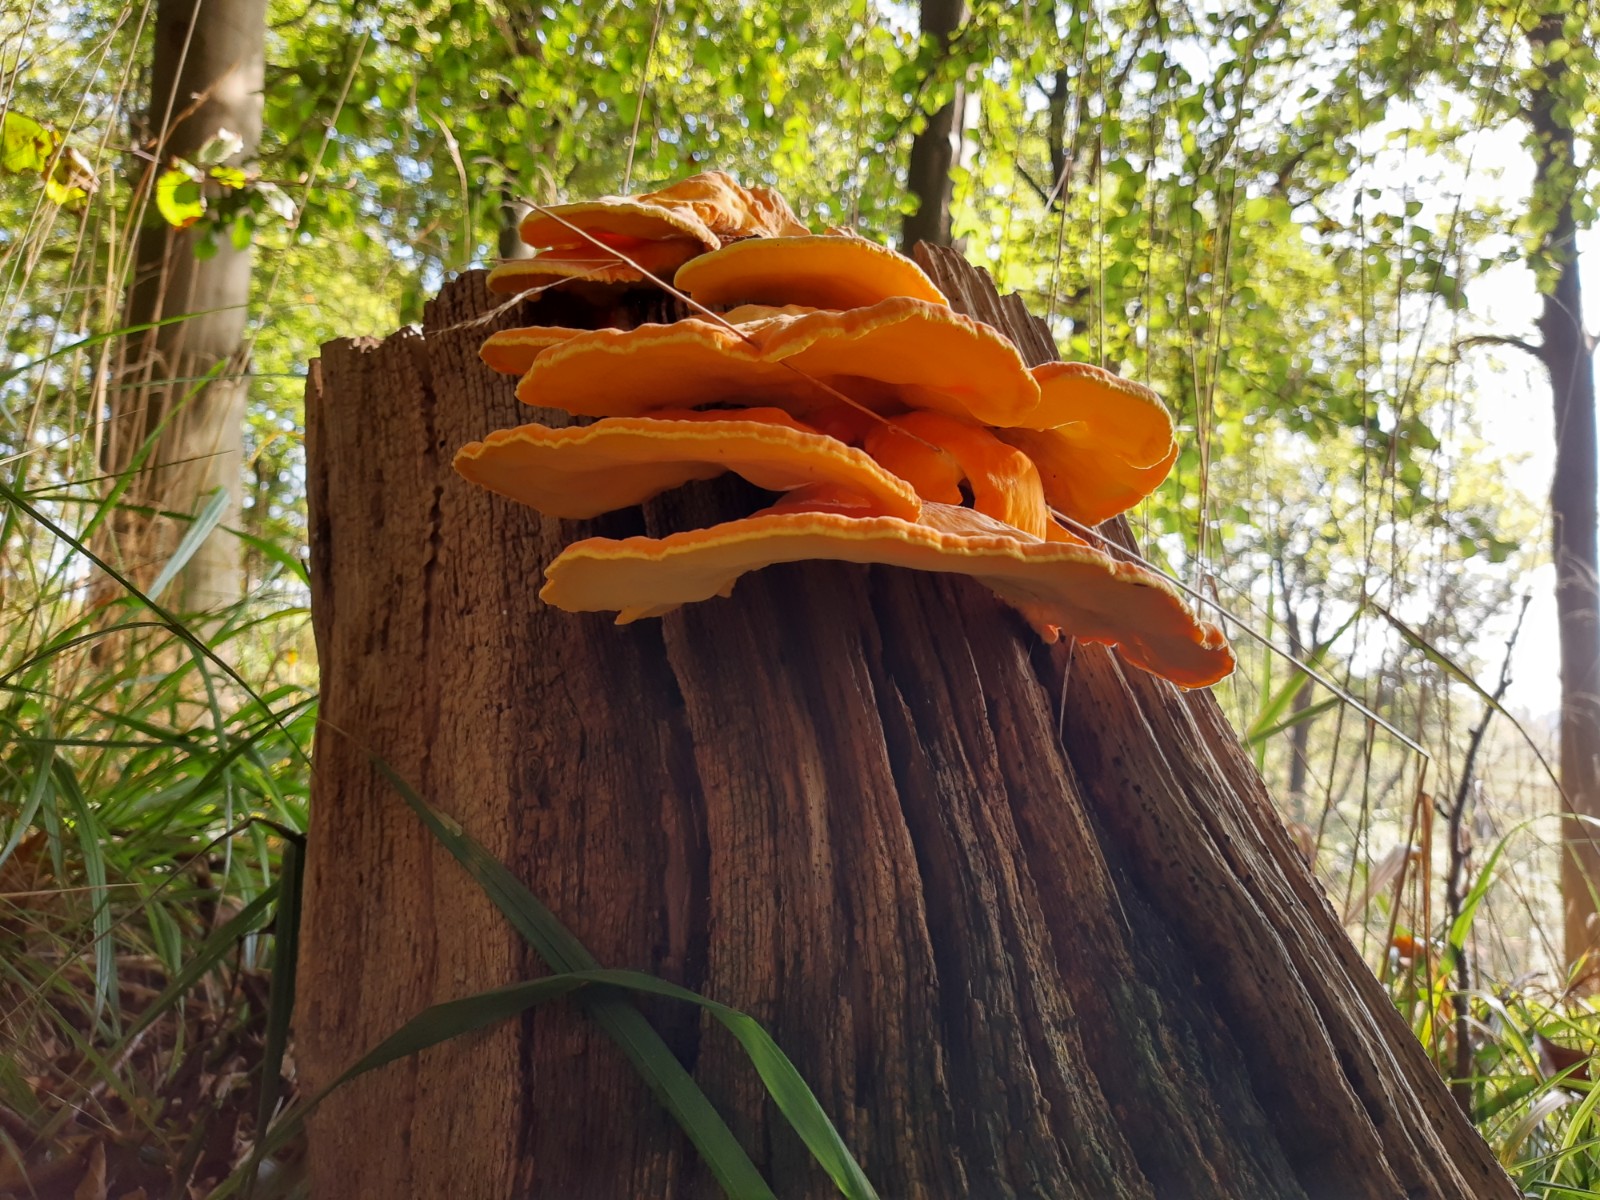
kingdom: Fungi
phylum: Basidiomycota
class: Agaricomycetes
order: Polyporales
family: Laetiporaceae
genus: Laetiporus
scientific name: Laetiporus sulphureus
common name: svovlporesvamp
